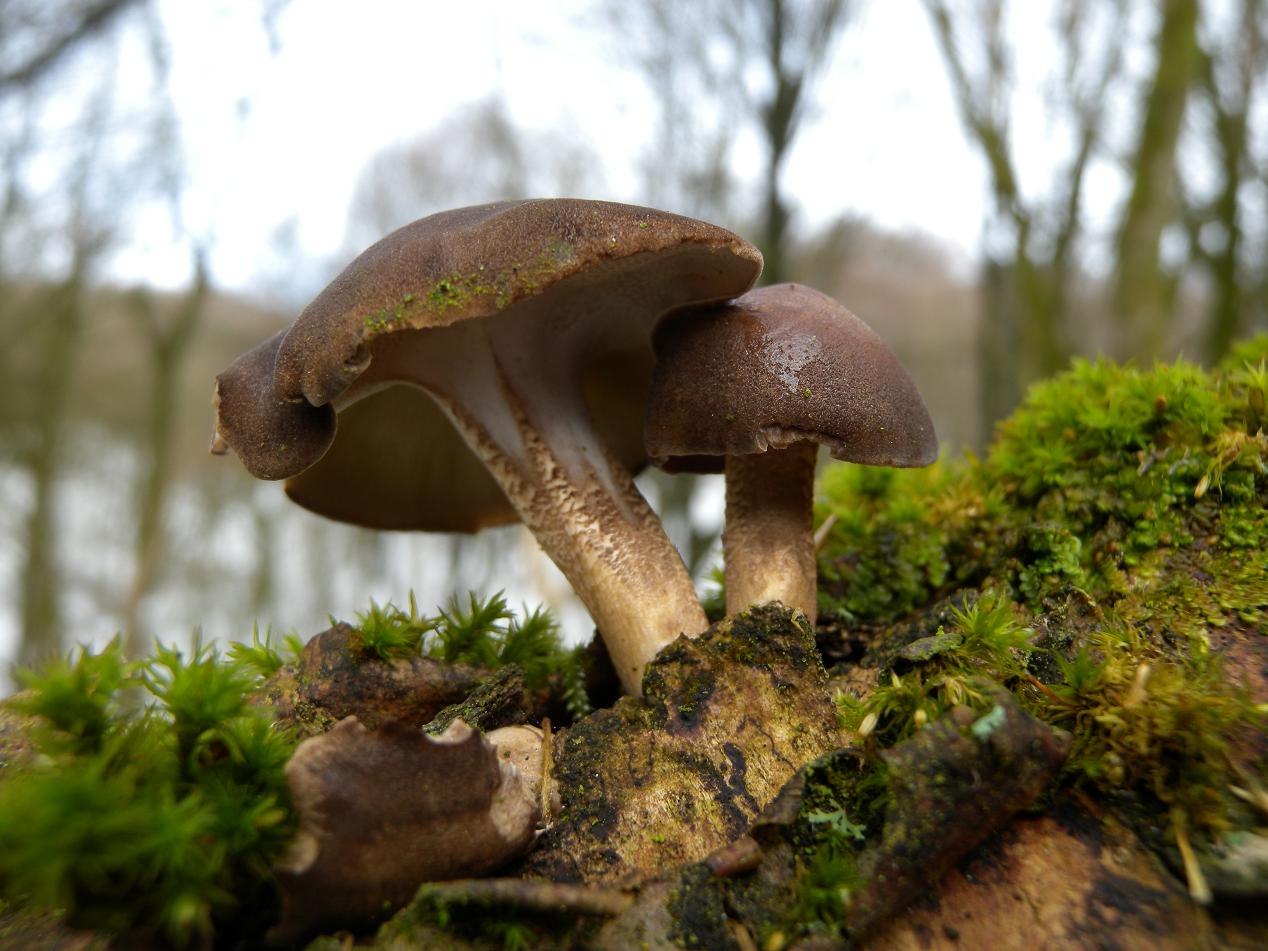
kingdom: Fungi
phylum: Basidiomycota
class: Agaricomycetes
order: Polyporales
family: Polyporaceae
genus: Lentinus
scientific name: Lentinus brumalis
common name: vinter-stilkporesvamp
